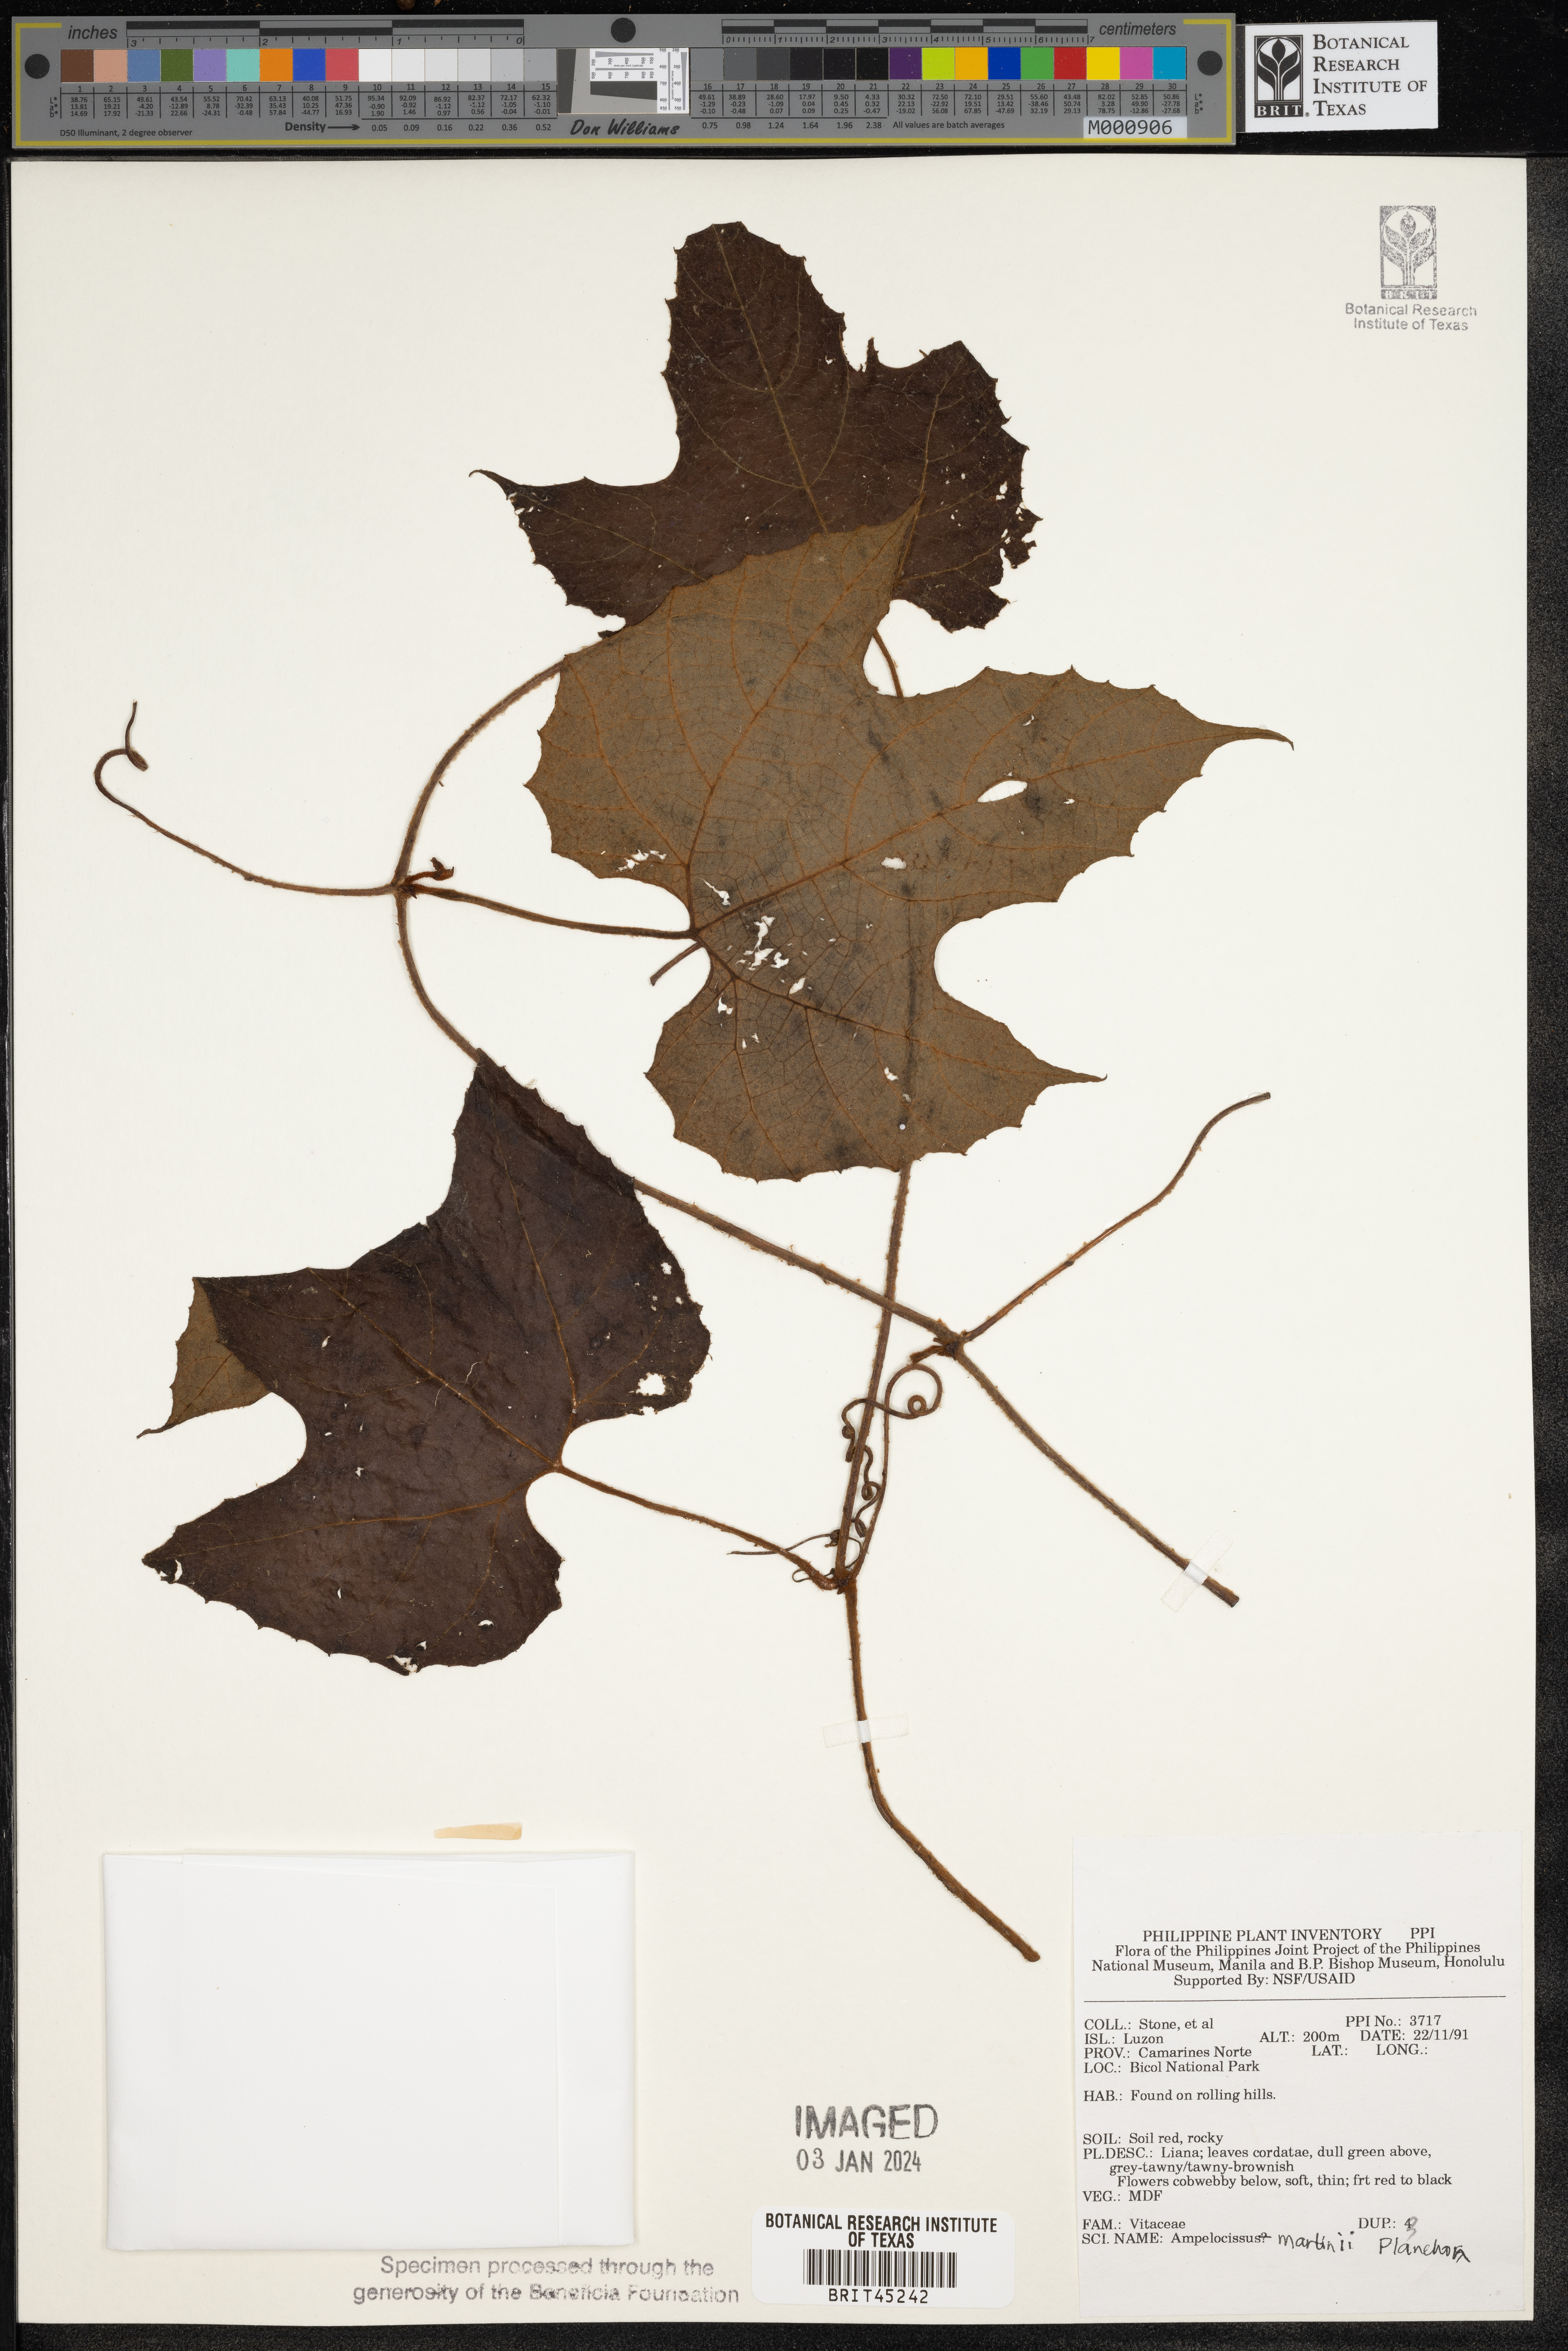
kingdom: Plantae
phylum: Tracheophyta
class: Magnoliopsida
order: Vitales
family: Vitaceae
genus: Ampelocissus
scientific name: Ampelocissus martini
